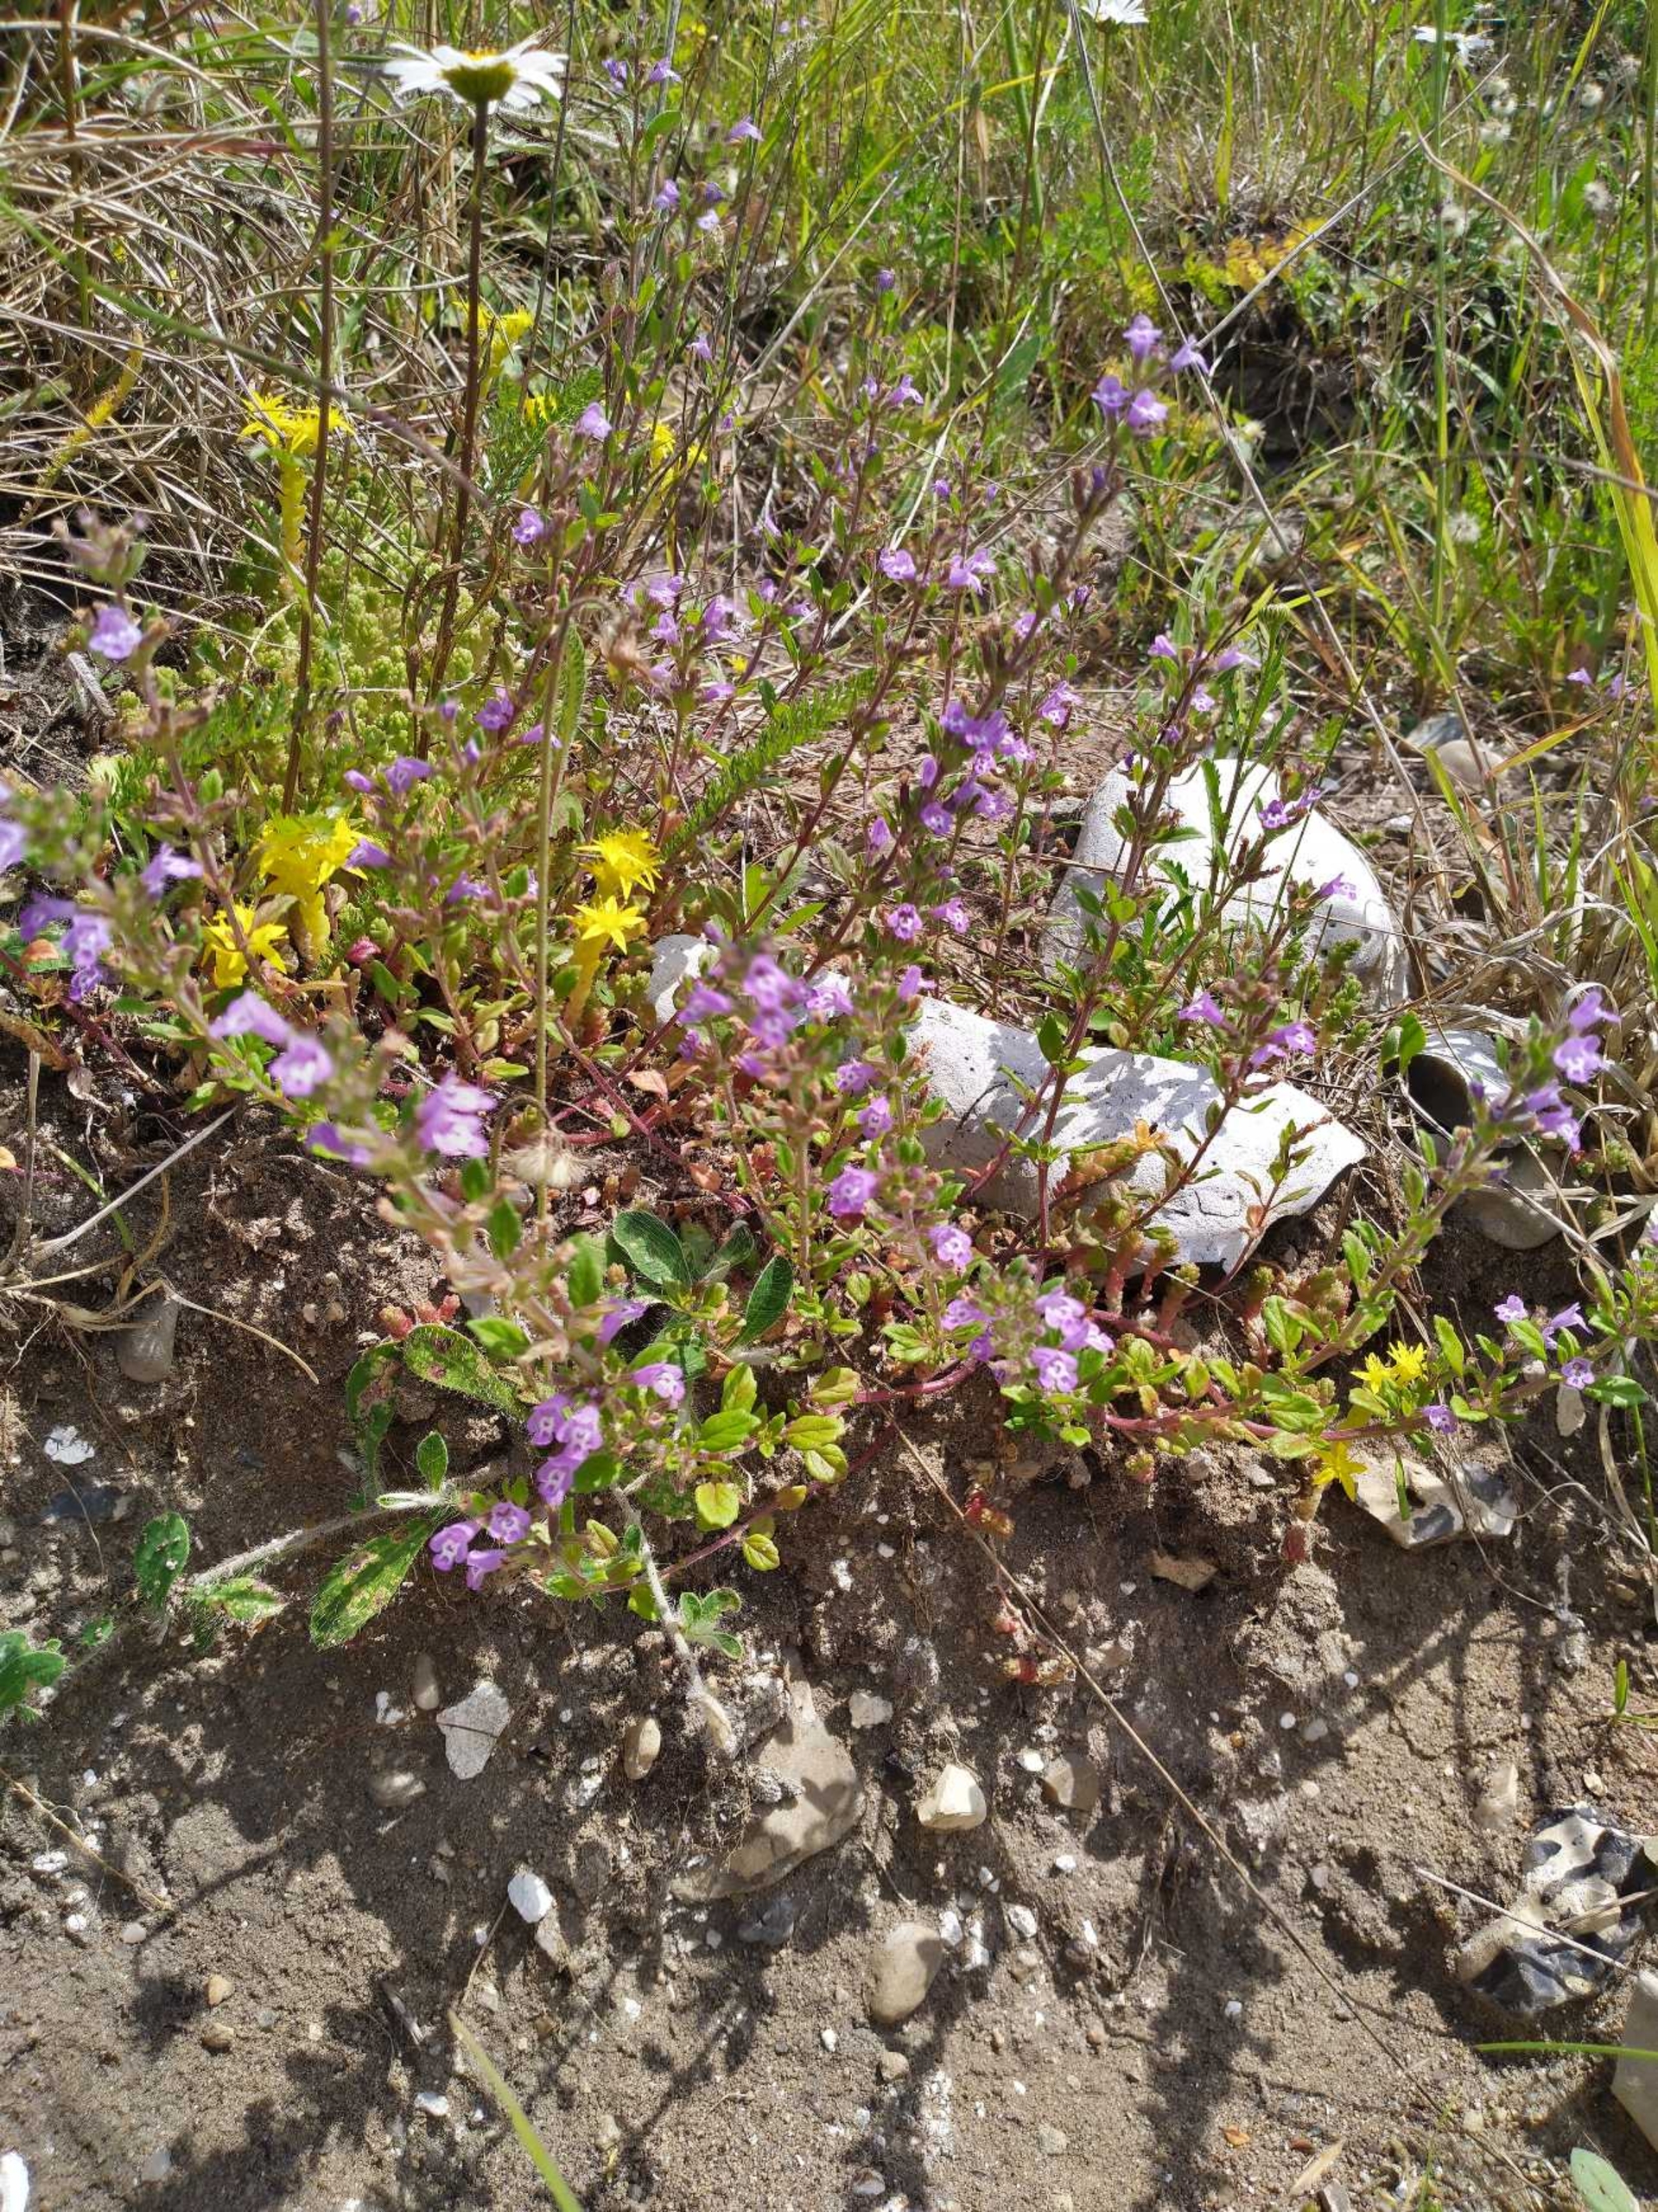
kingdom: Plantae
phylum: Tracheophyta
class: Magnoliopsida
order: Lamiales
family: Lamiaceae
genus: Clinopodium
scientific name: Clinopodium acinos
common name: Voldtimian
